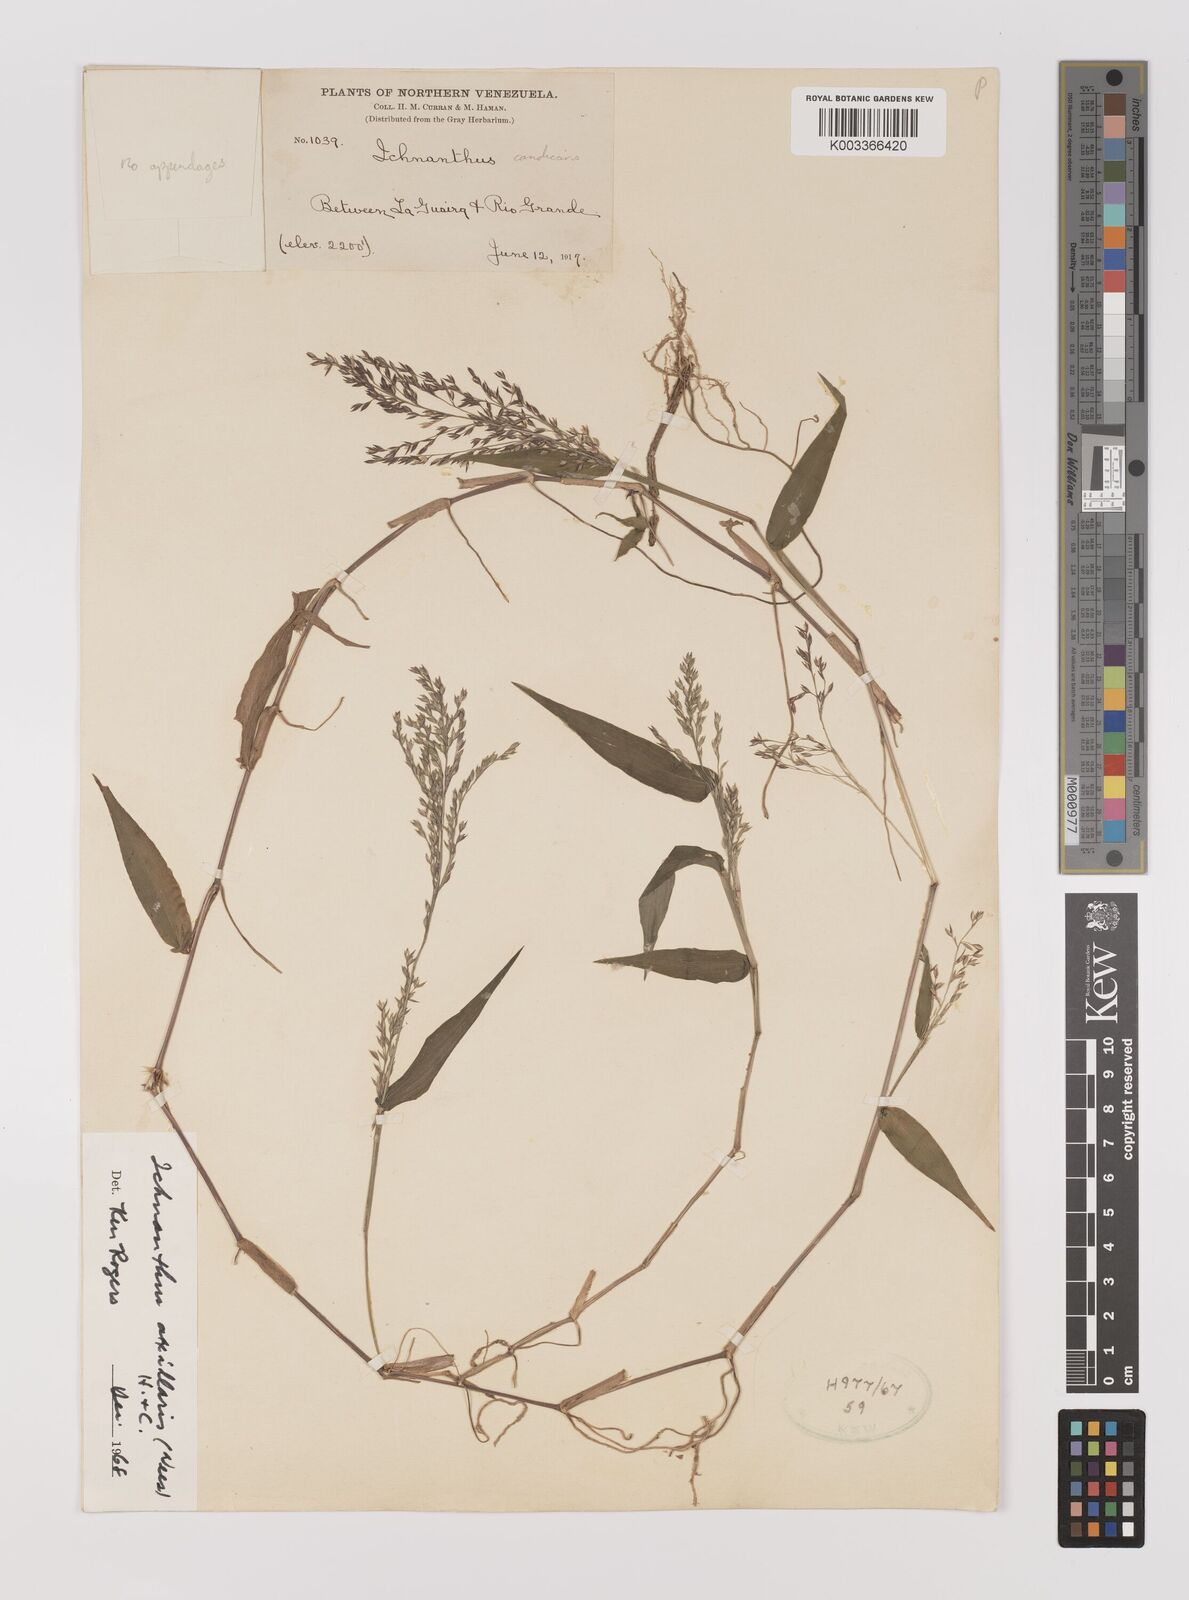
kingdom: Plantae
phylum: Tracheophyta
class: Liliopsida
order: Poales
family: Poaceae
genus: Ichnanthus
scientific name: Ichnanthus pallens
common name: Water grass
